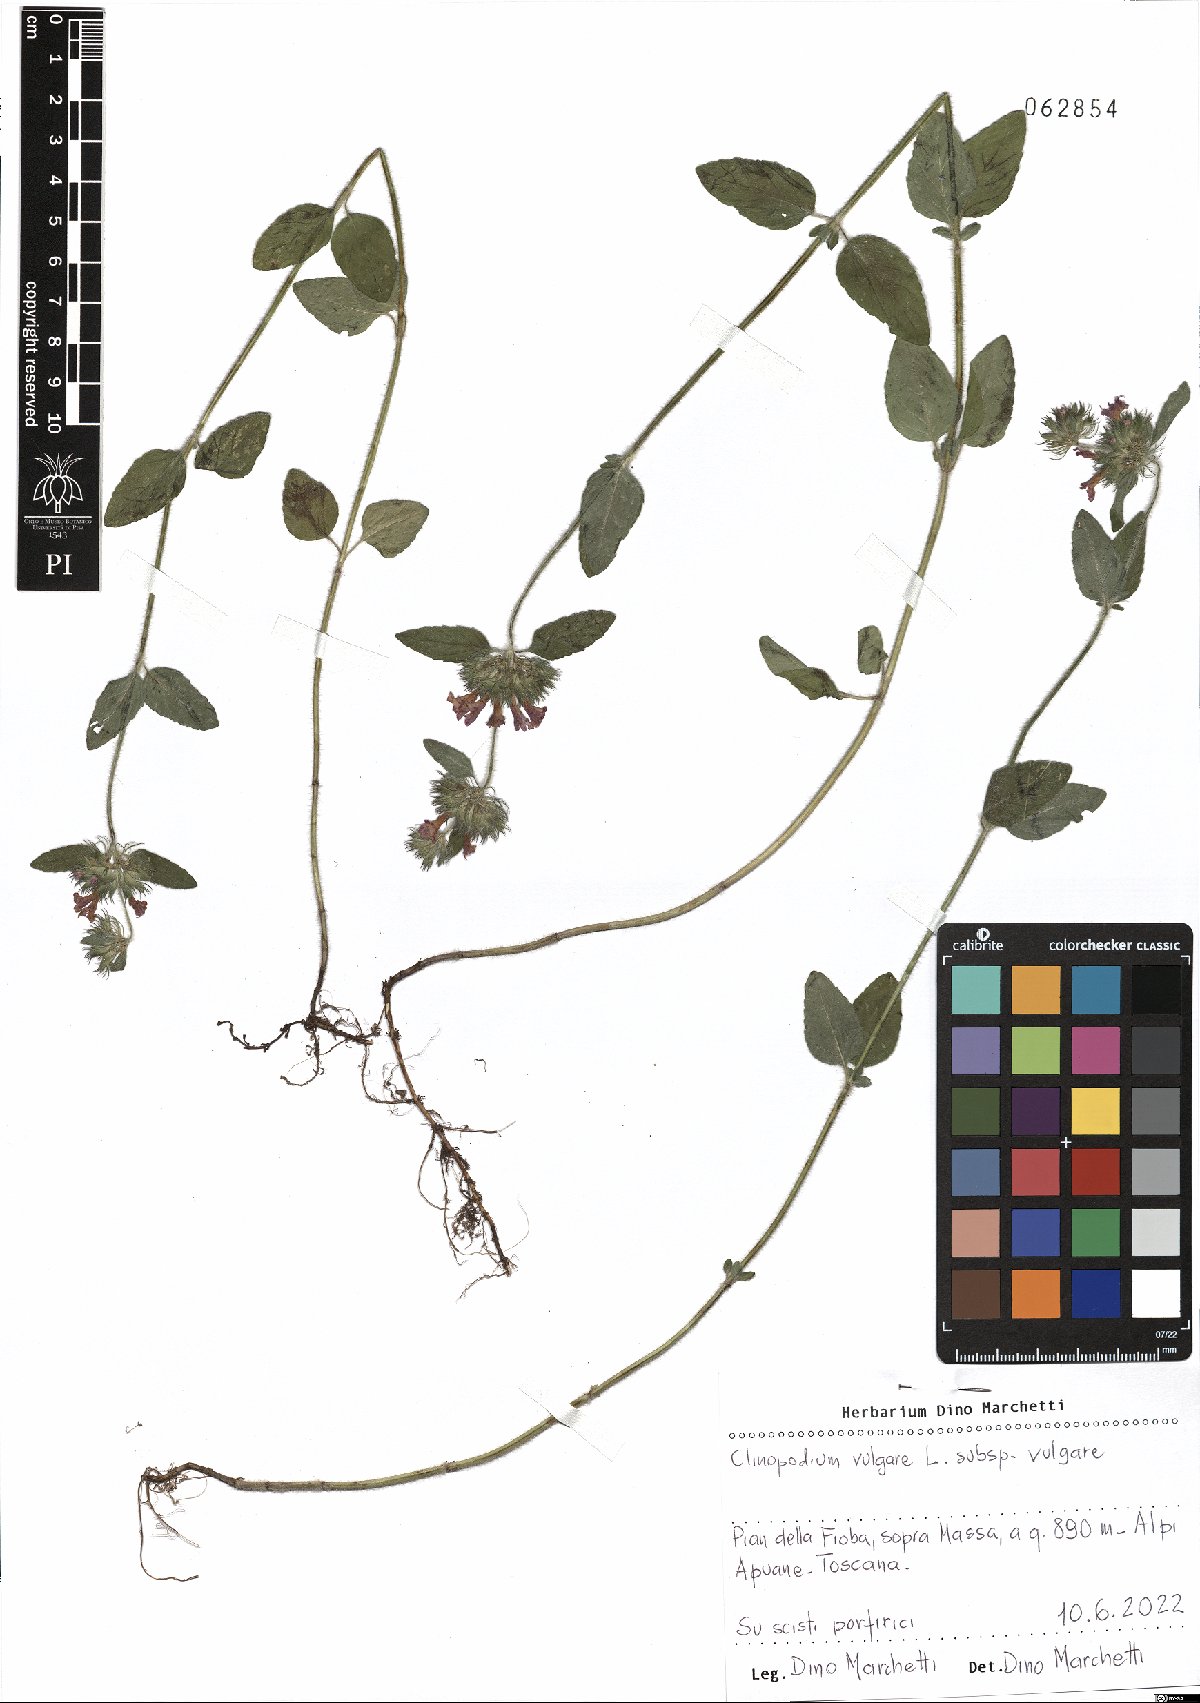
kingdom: Plantae
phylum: Tracheophyta
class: Magnoliopsida
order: Lamiales
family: Lamiaceae
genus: Clinopodium
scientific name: Clinopodium vulgare
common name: Wild basil
